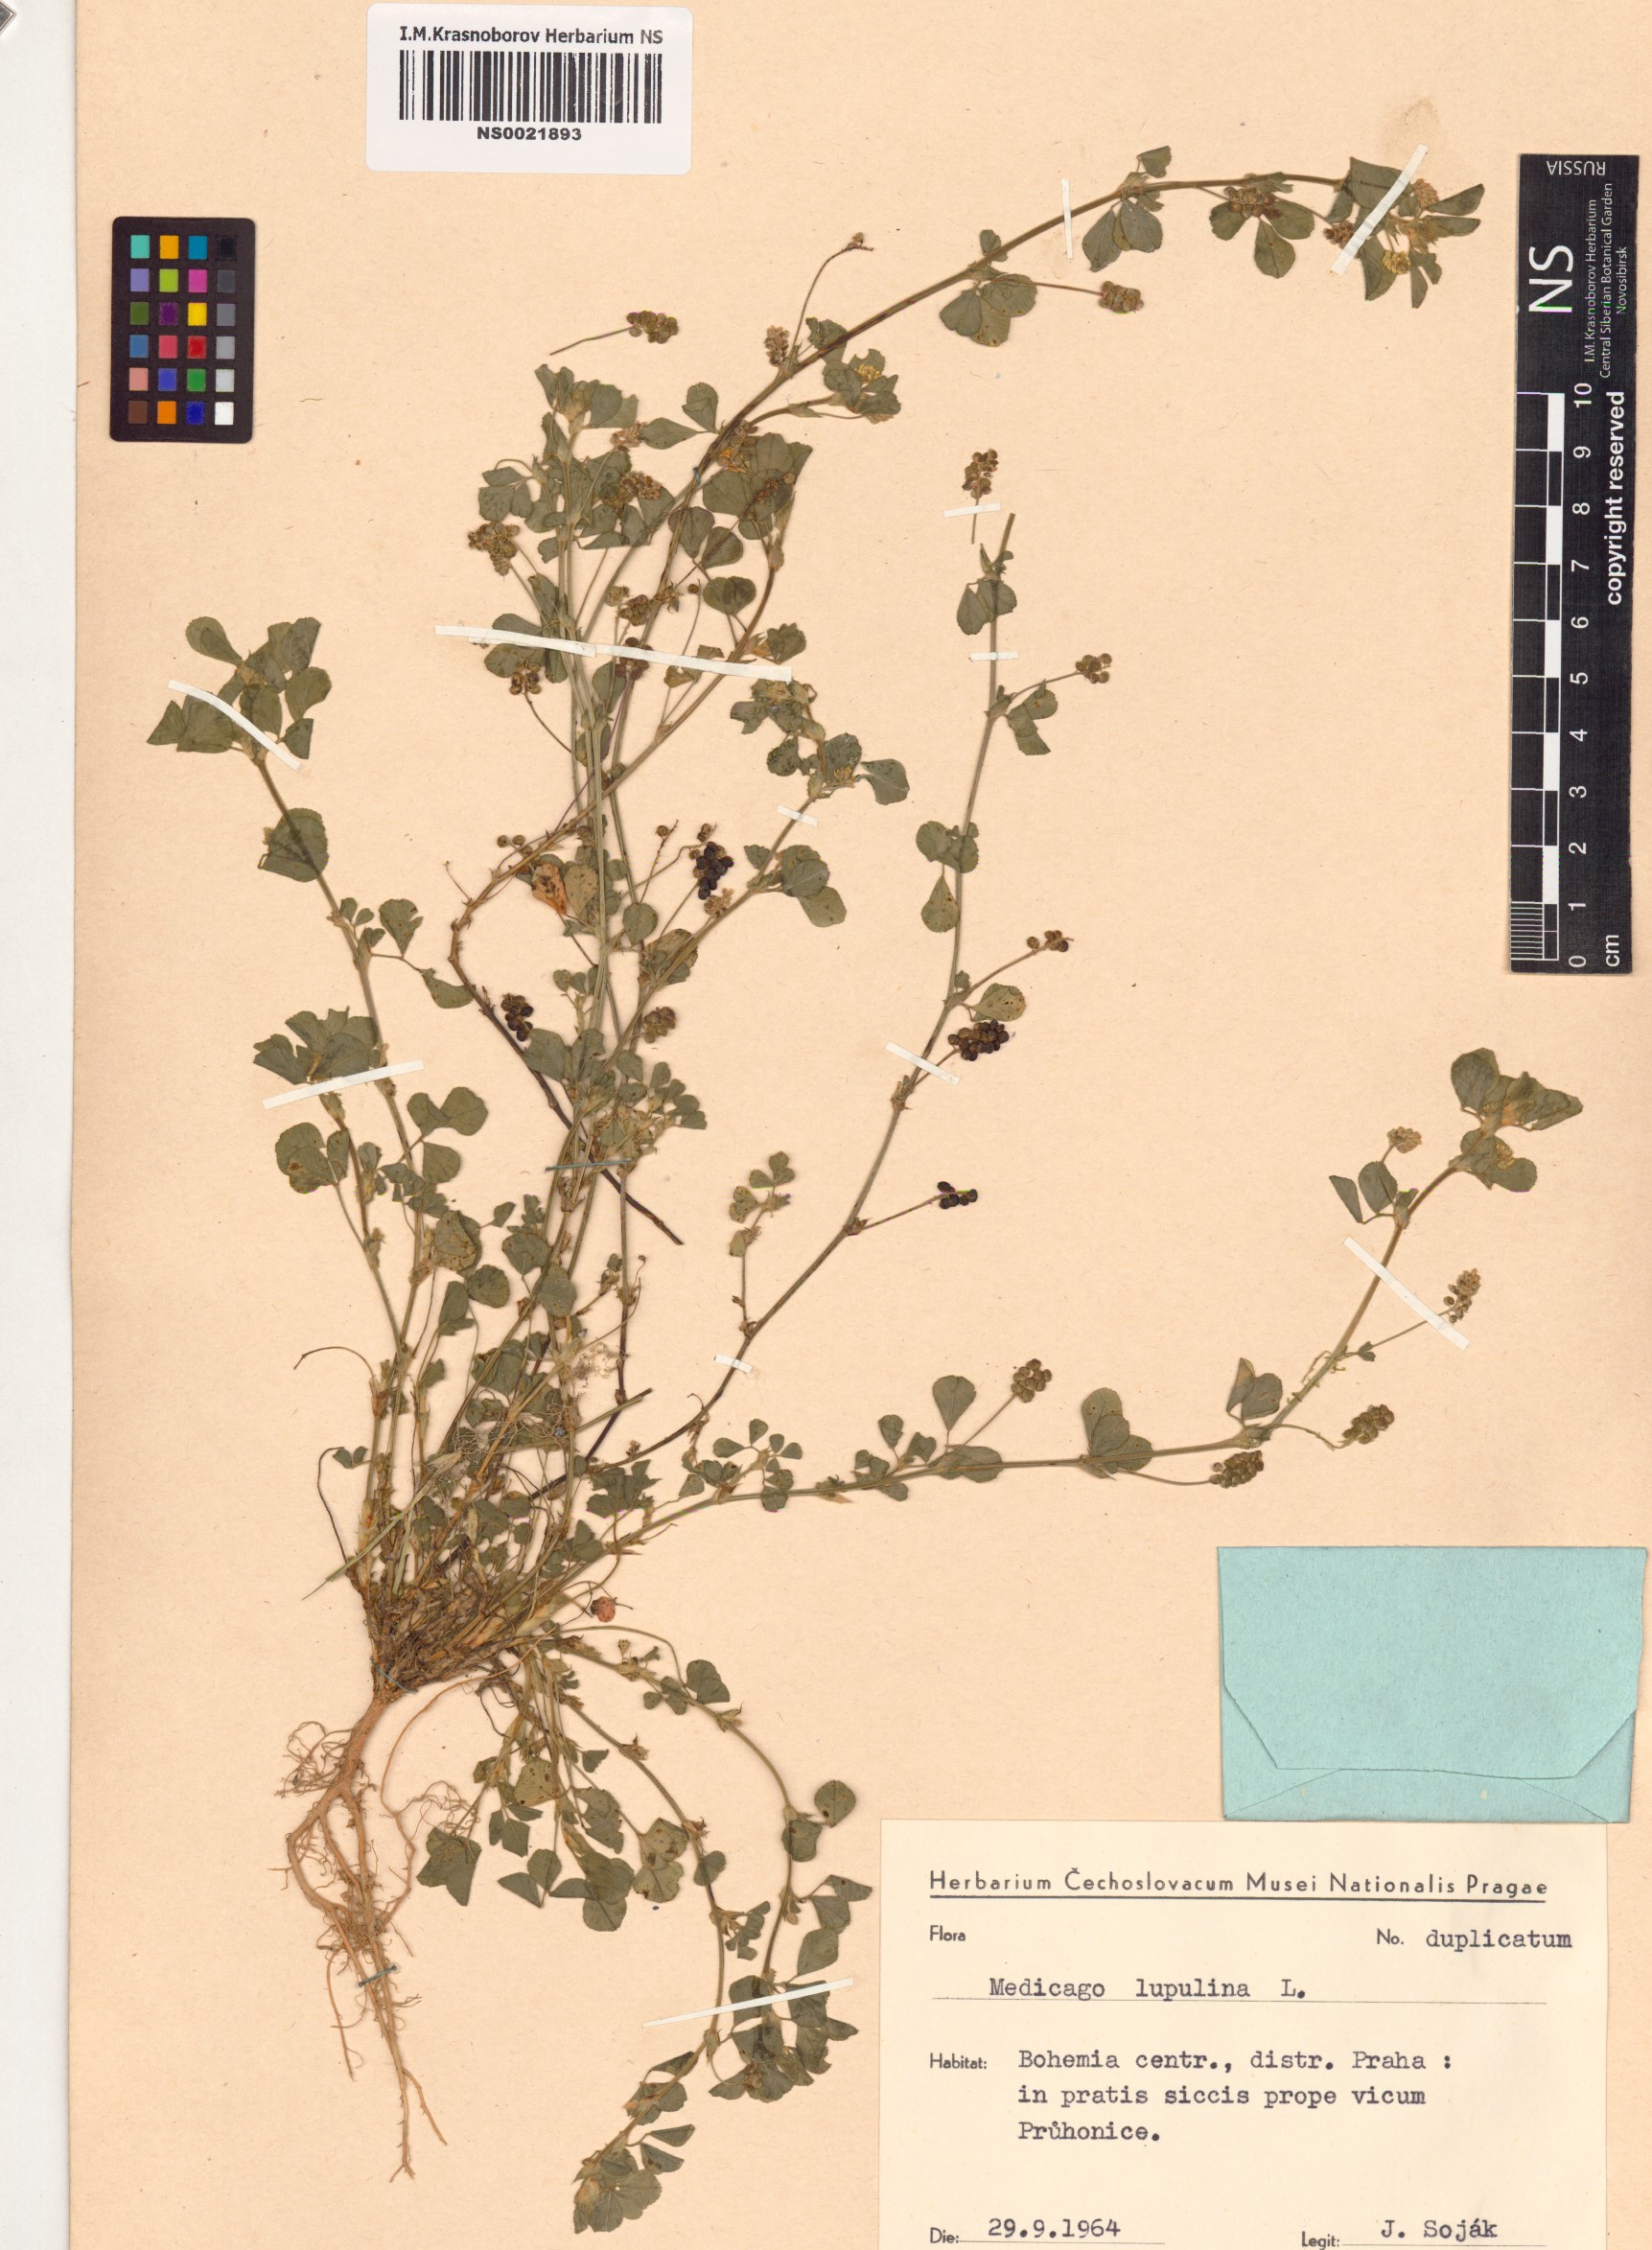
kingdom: Plantae
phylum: Tracheophyta
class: Magnoliopsida
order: Fabales
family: Fabaceae
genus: Medicago
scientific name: Medicago lupulina
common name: Black medick
